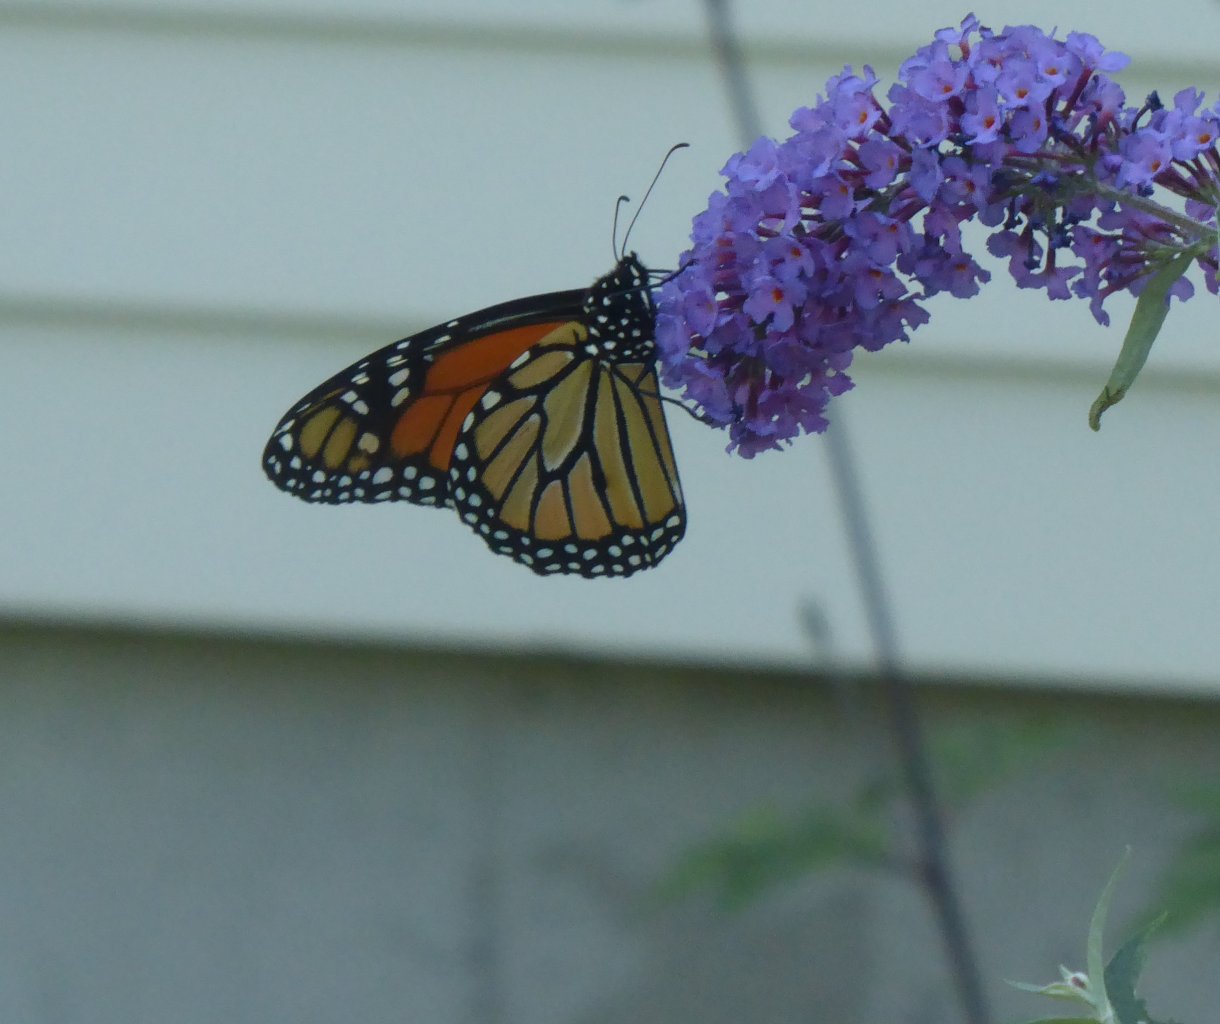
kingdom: Animalia
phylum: Arthropoda
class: Insecta
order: Lepidoptera
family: Nymphalidae
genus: Danaus
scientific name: Danaus plexippus
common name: Monarch
